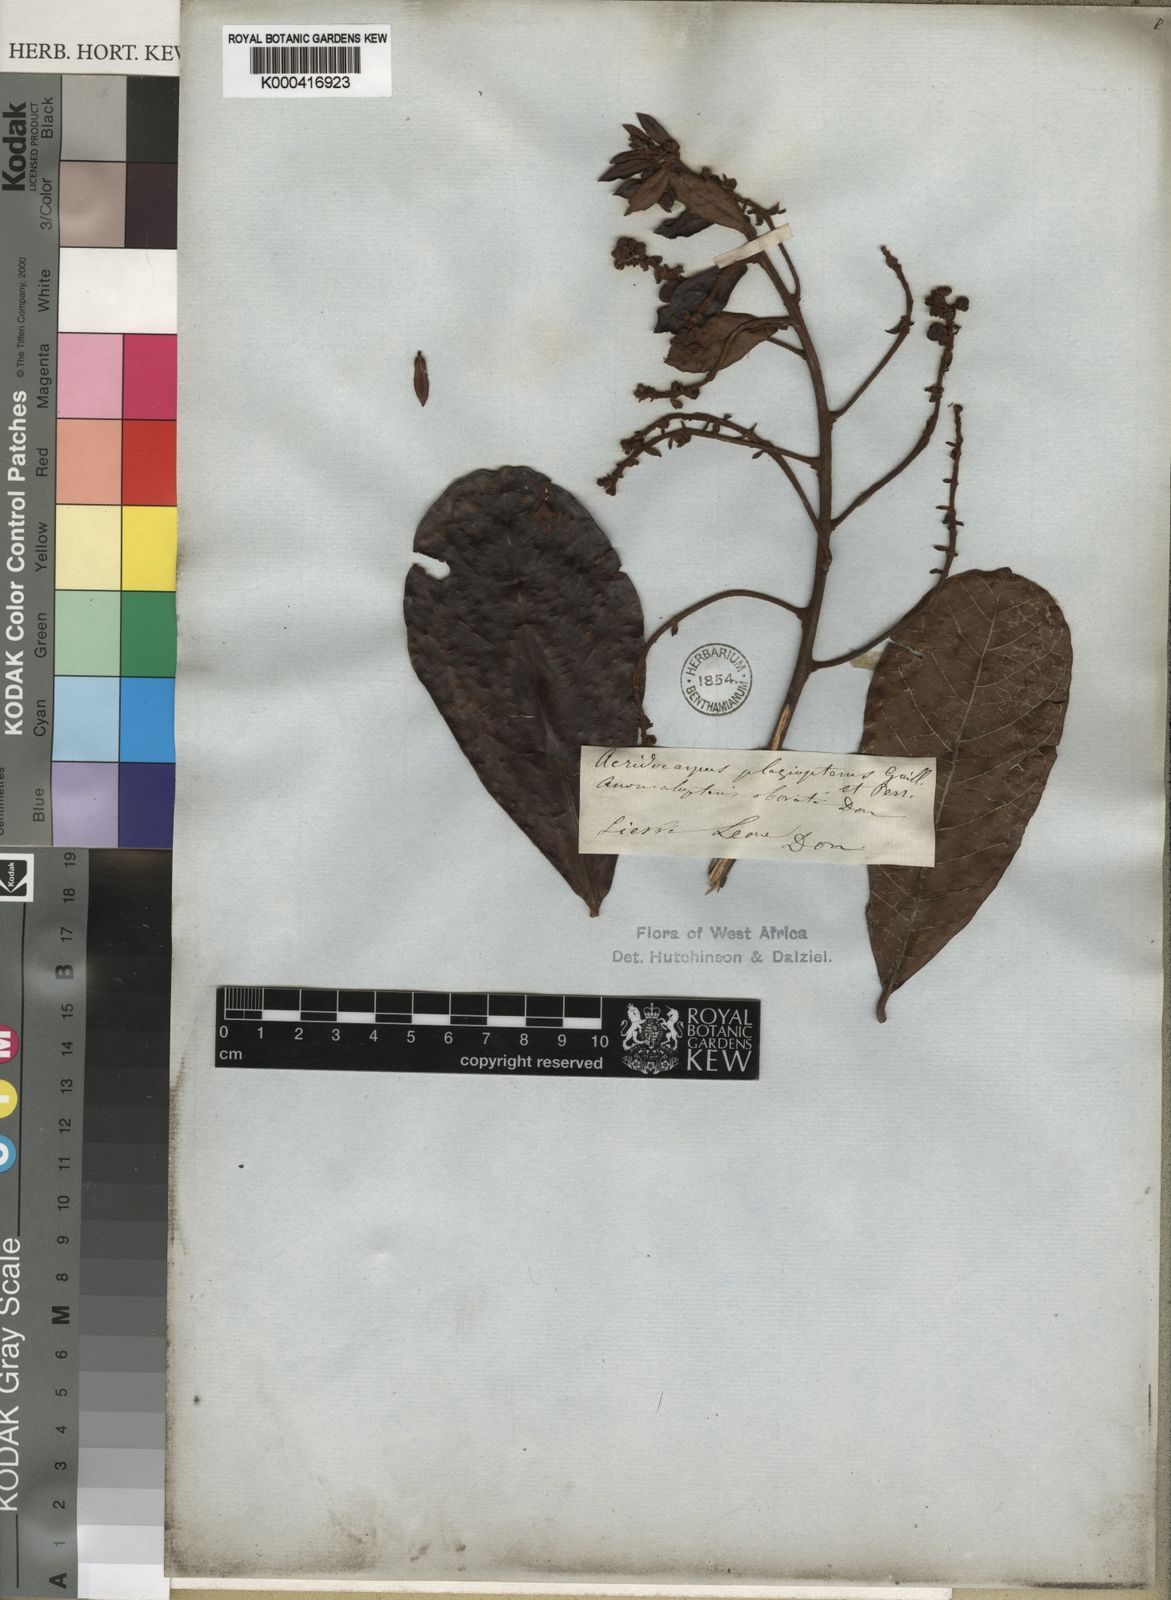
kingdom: Plantae
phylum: Tracheophyta
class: Magnoliopsida
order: Malpighiales
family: Malpighiaceae
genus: Acridocarpus
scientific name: Acridocarpus plagiopterus
